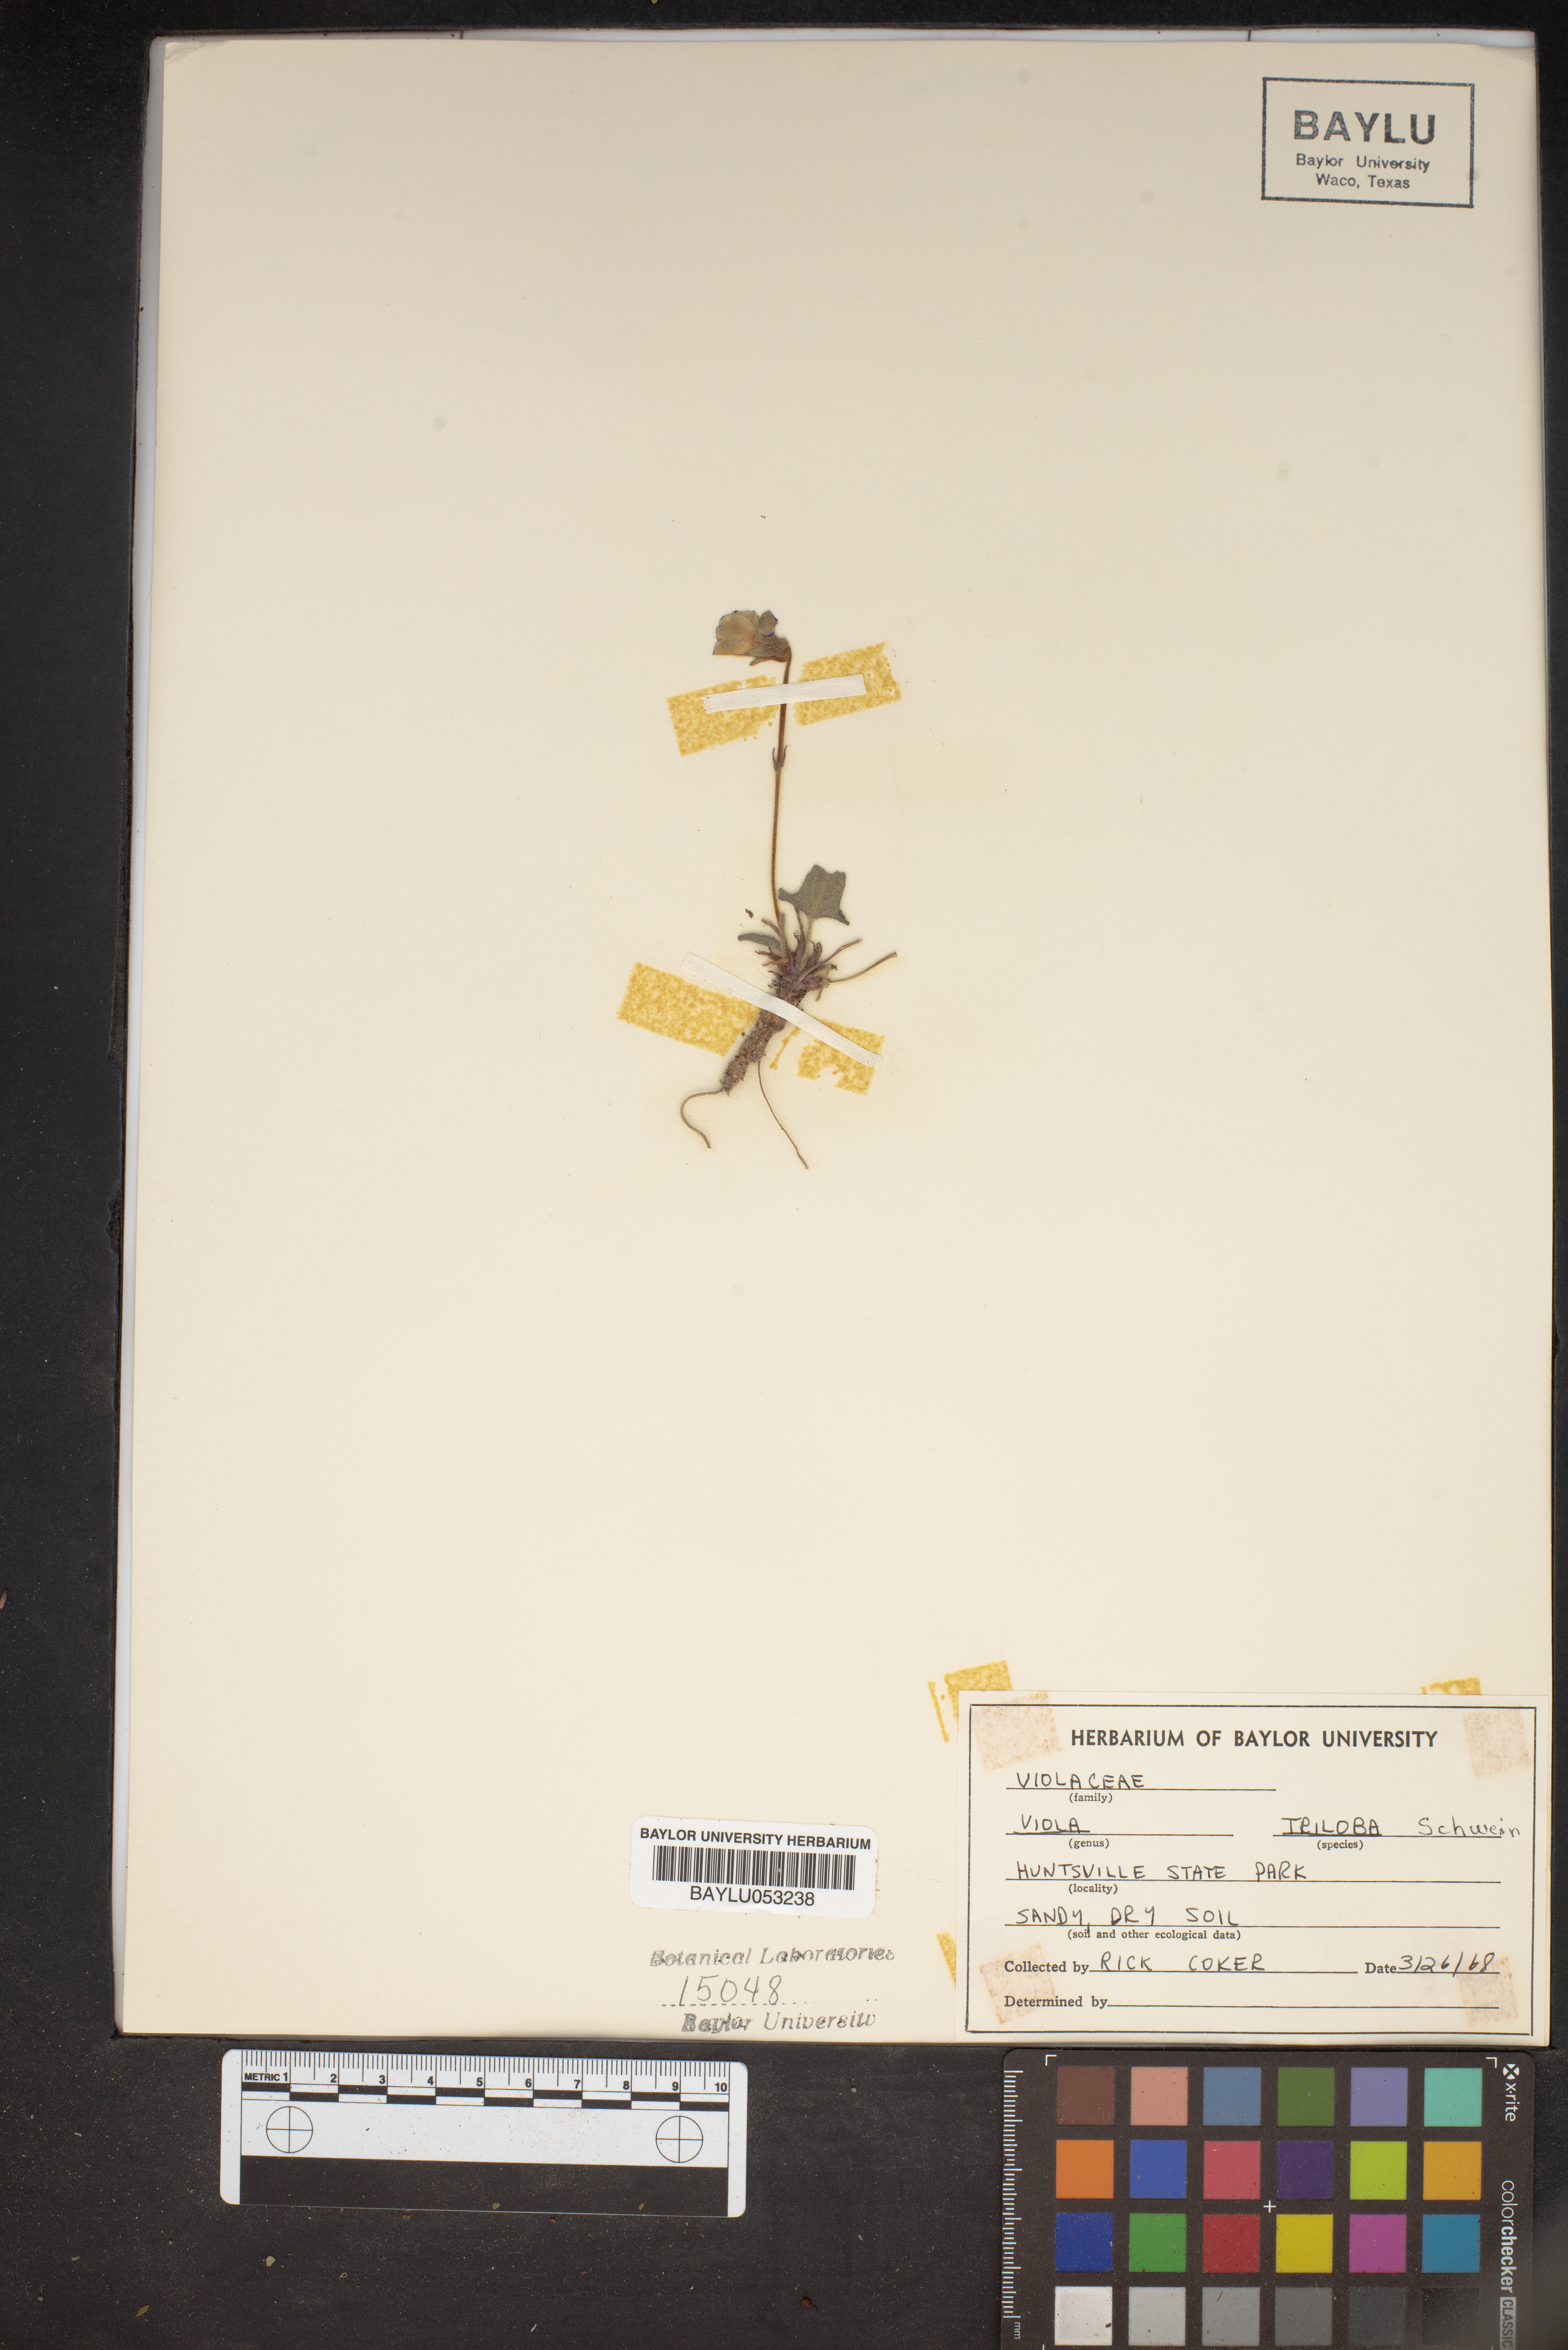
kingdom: Plantae
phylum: Tracheophyta
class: Magnoliopsida
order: Malpighiales
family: Violaceae
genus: Viola
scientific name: Viola palmata
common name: Early blue violet
